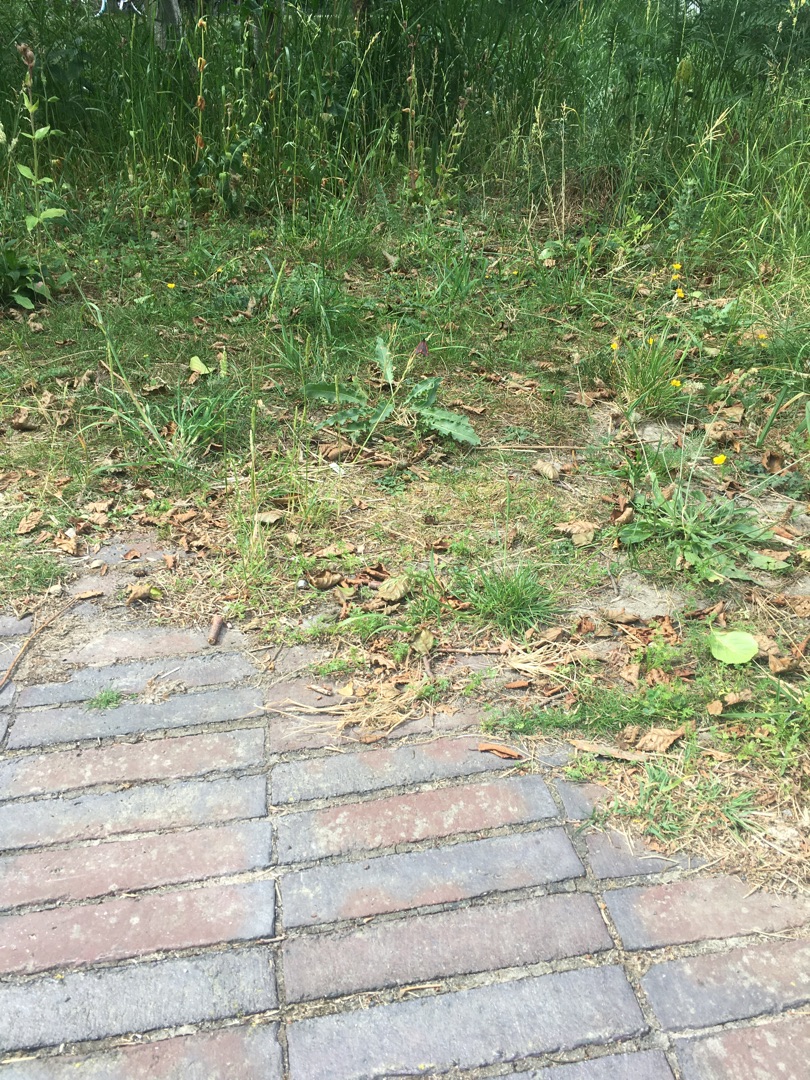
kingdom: Animalia
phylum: Arthropoda
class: Insecta
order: Lepidoptera
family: Erebidae
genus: Tyria
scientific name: Tyria jacobaeae
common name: Blodplet
